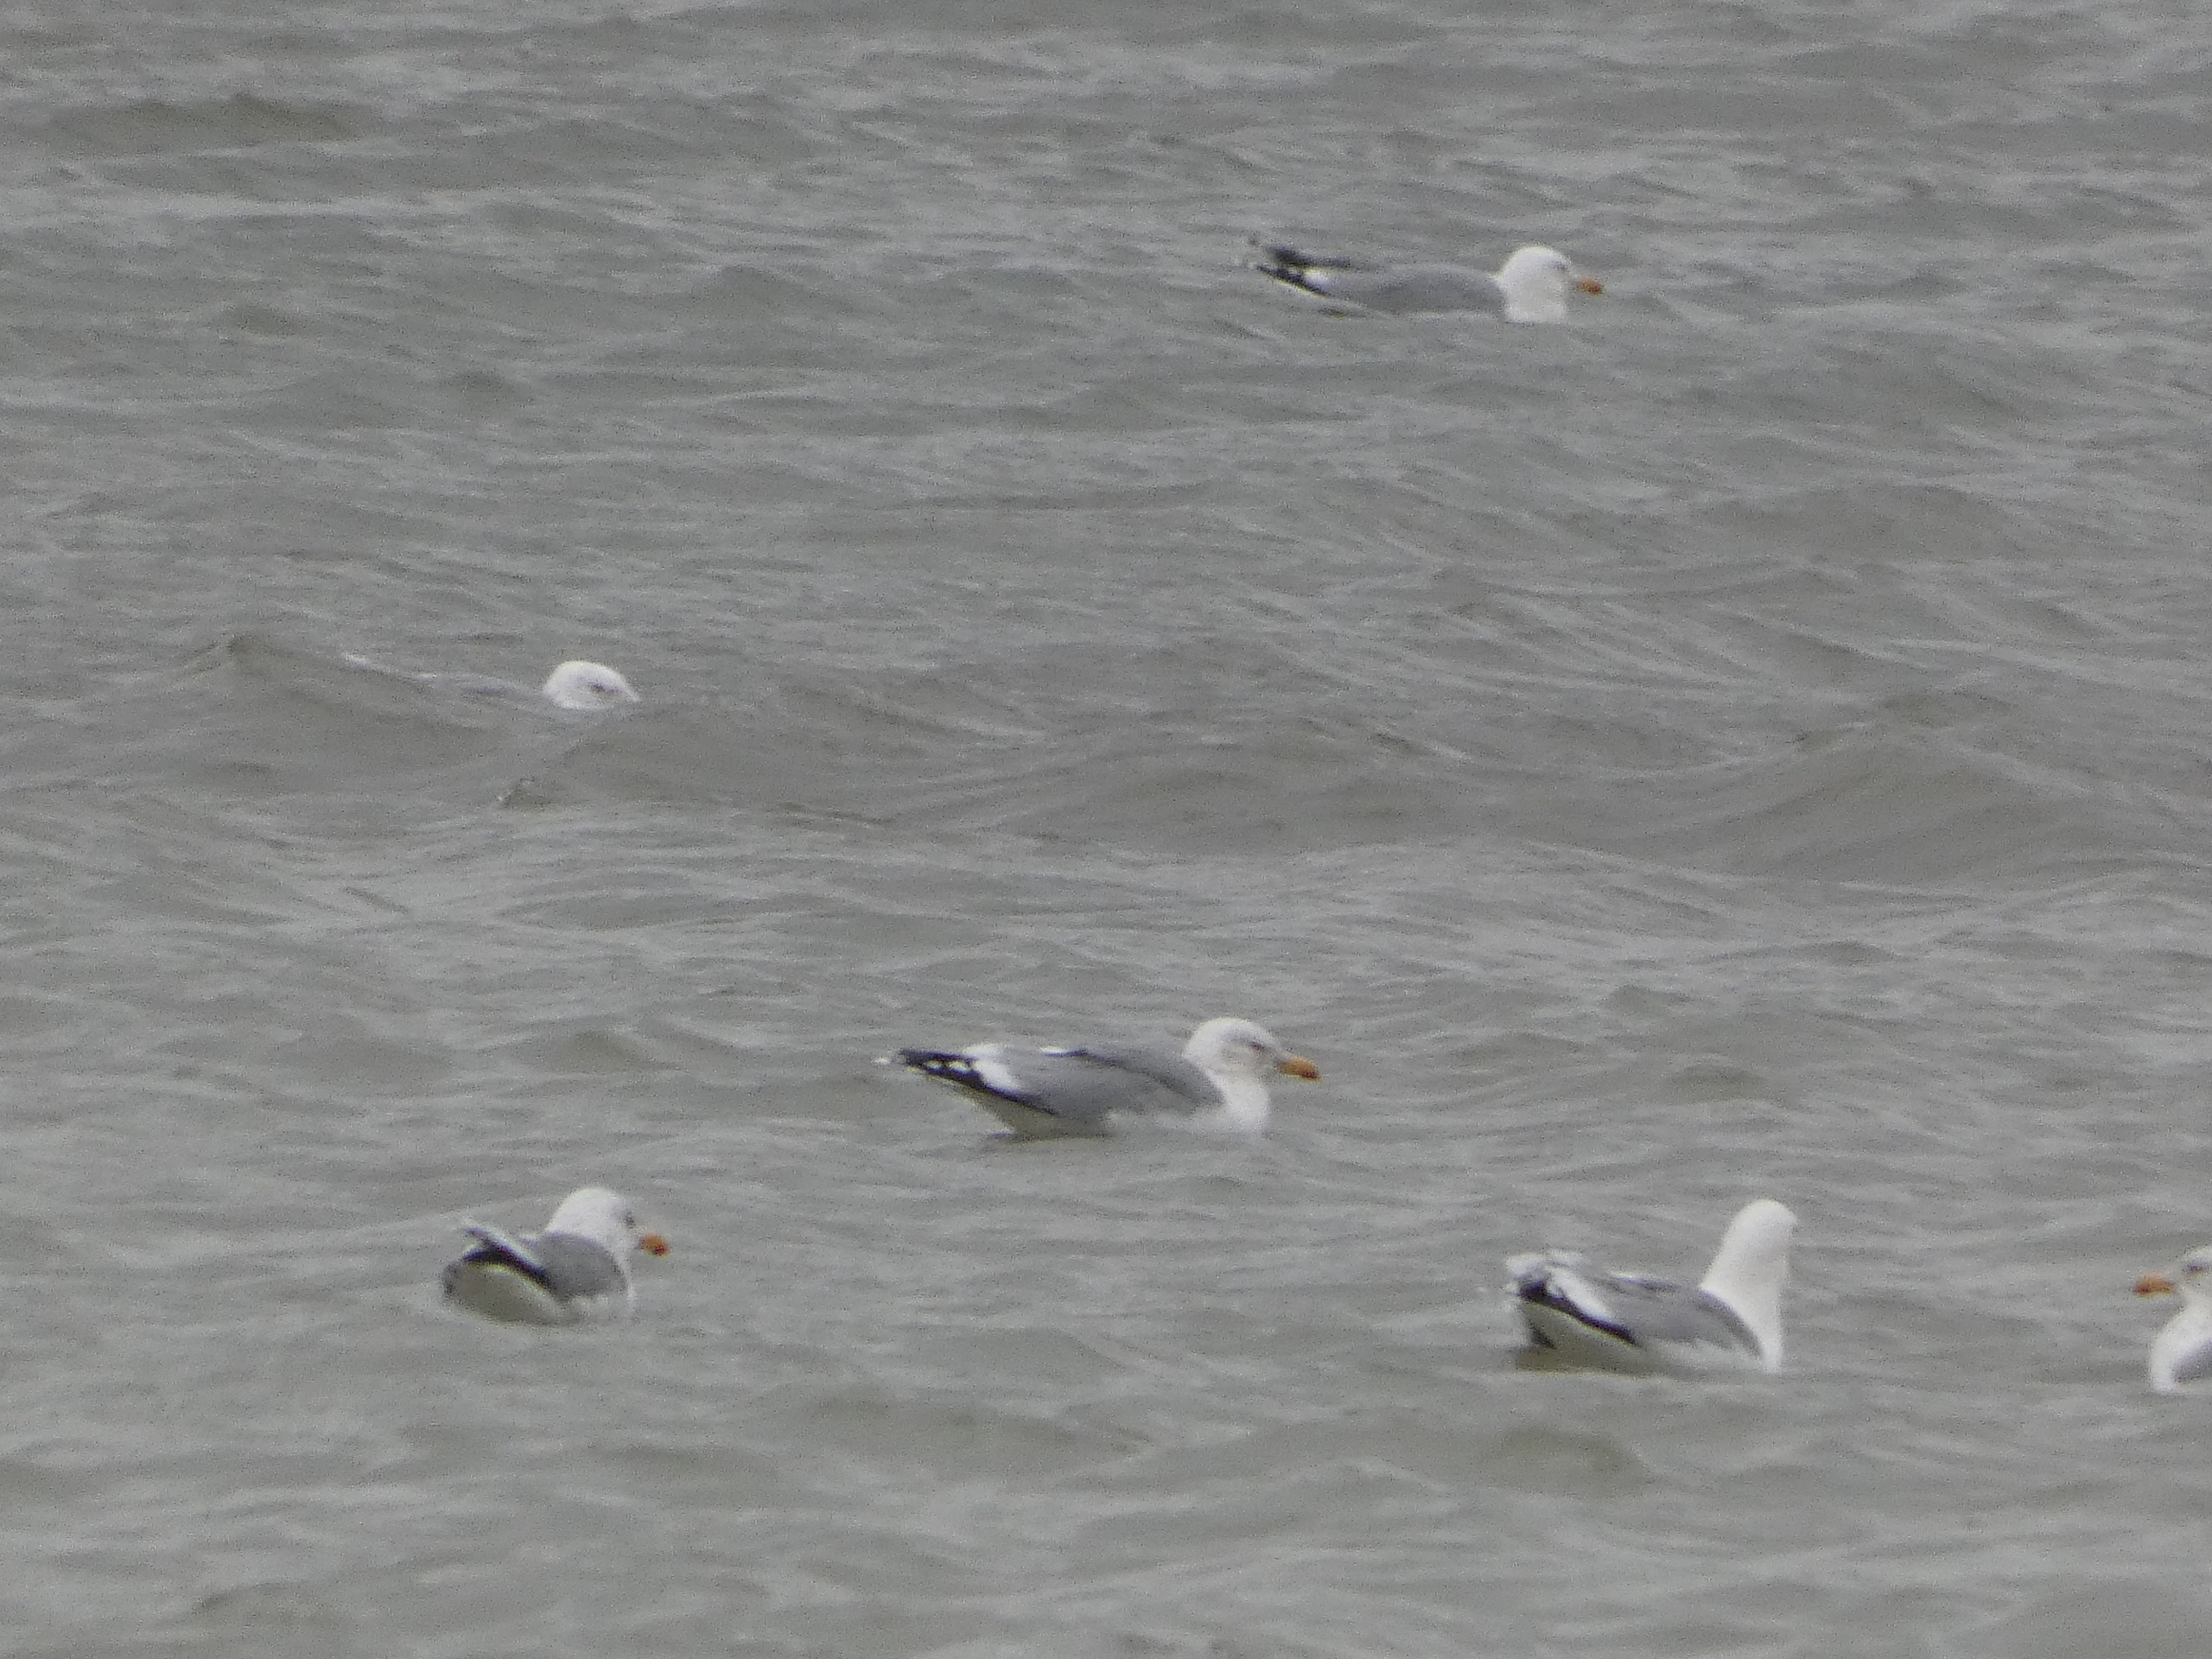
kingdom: Animalia
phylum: Chordata
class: Aves
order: Charadriiformes
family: Laridae
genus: Larus
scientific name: Larus argentatus
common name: Sølvmåge
